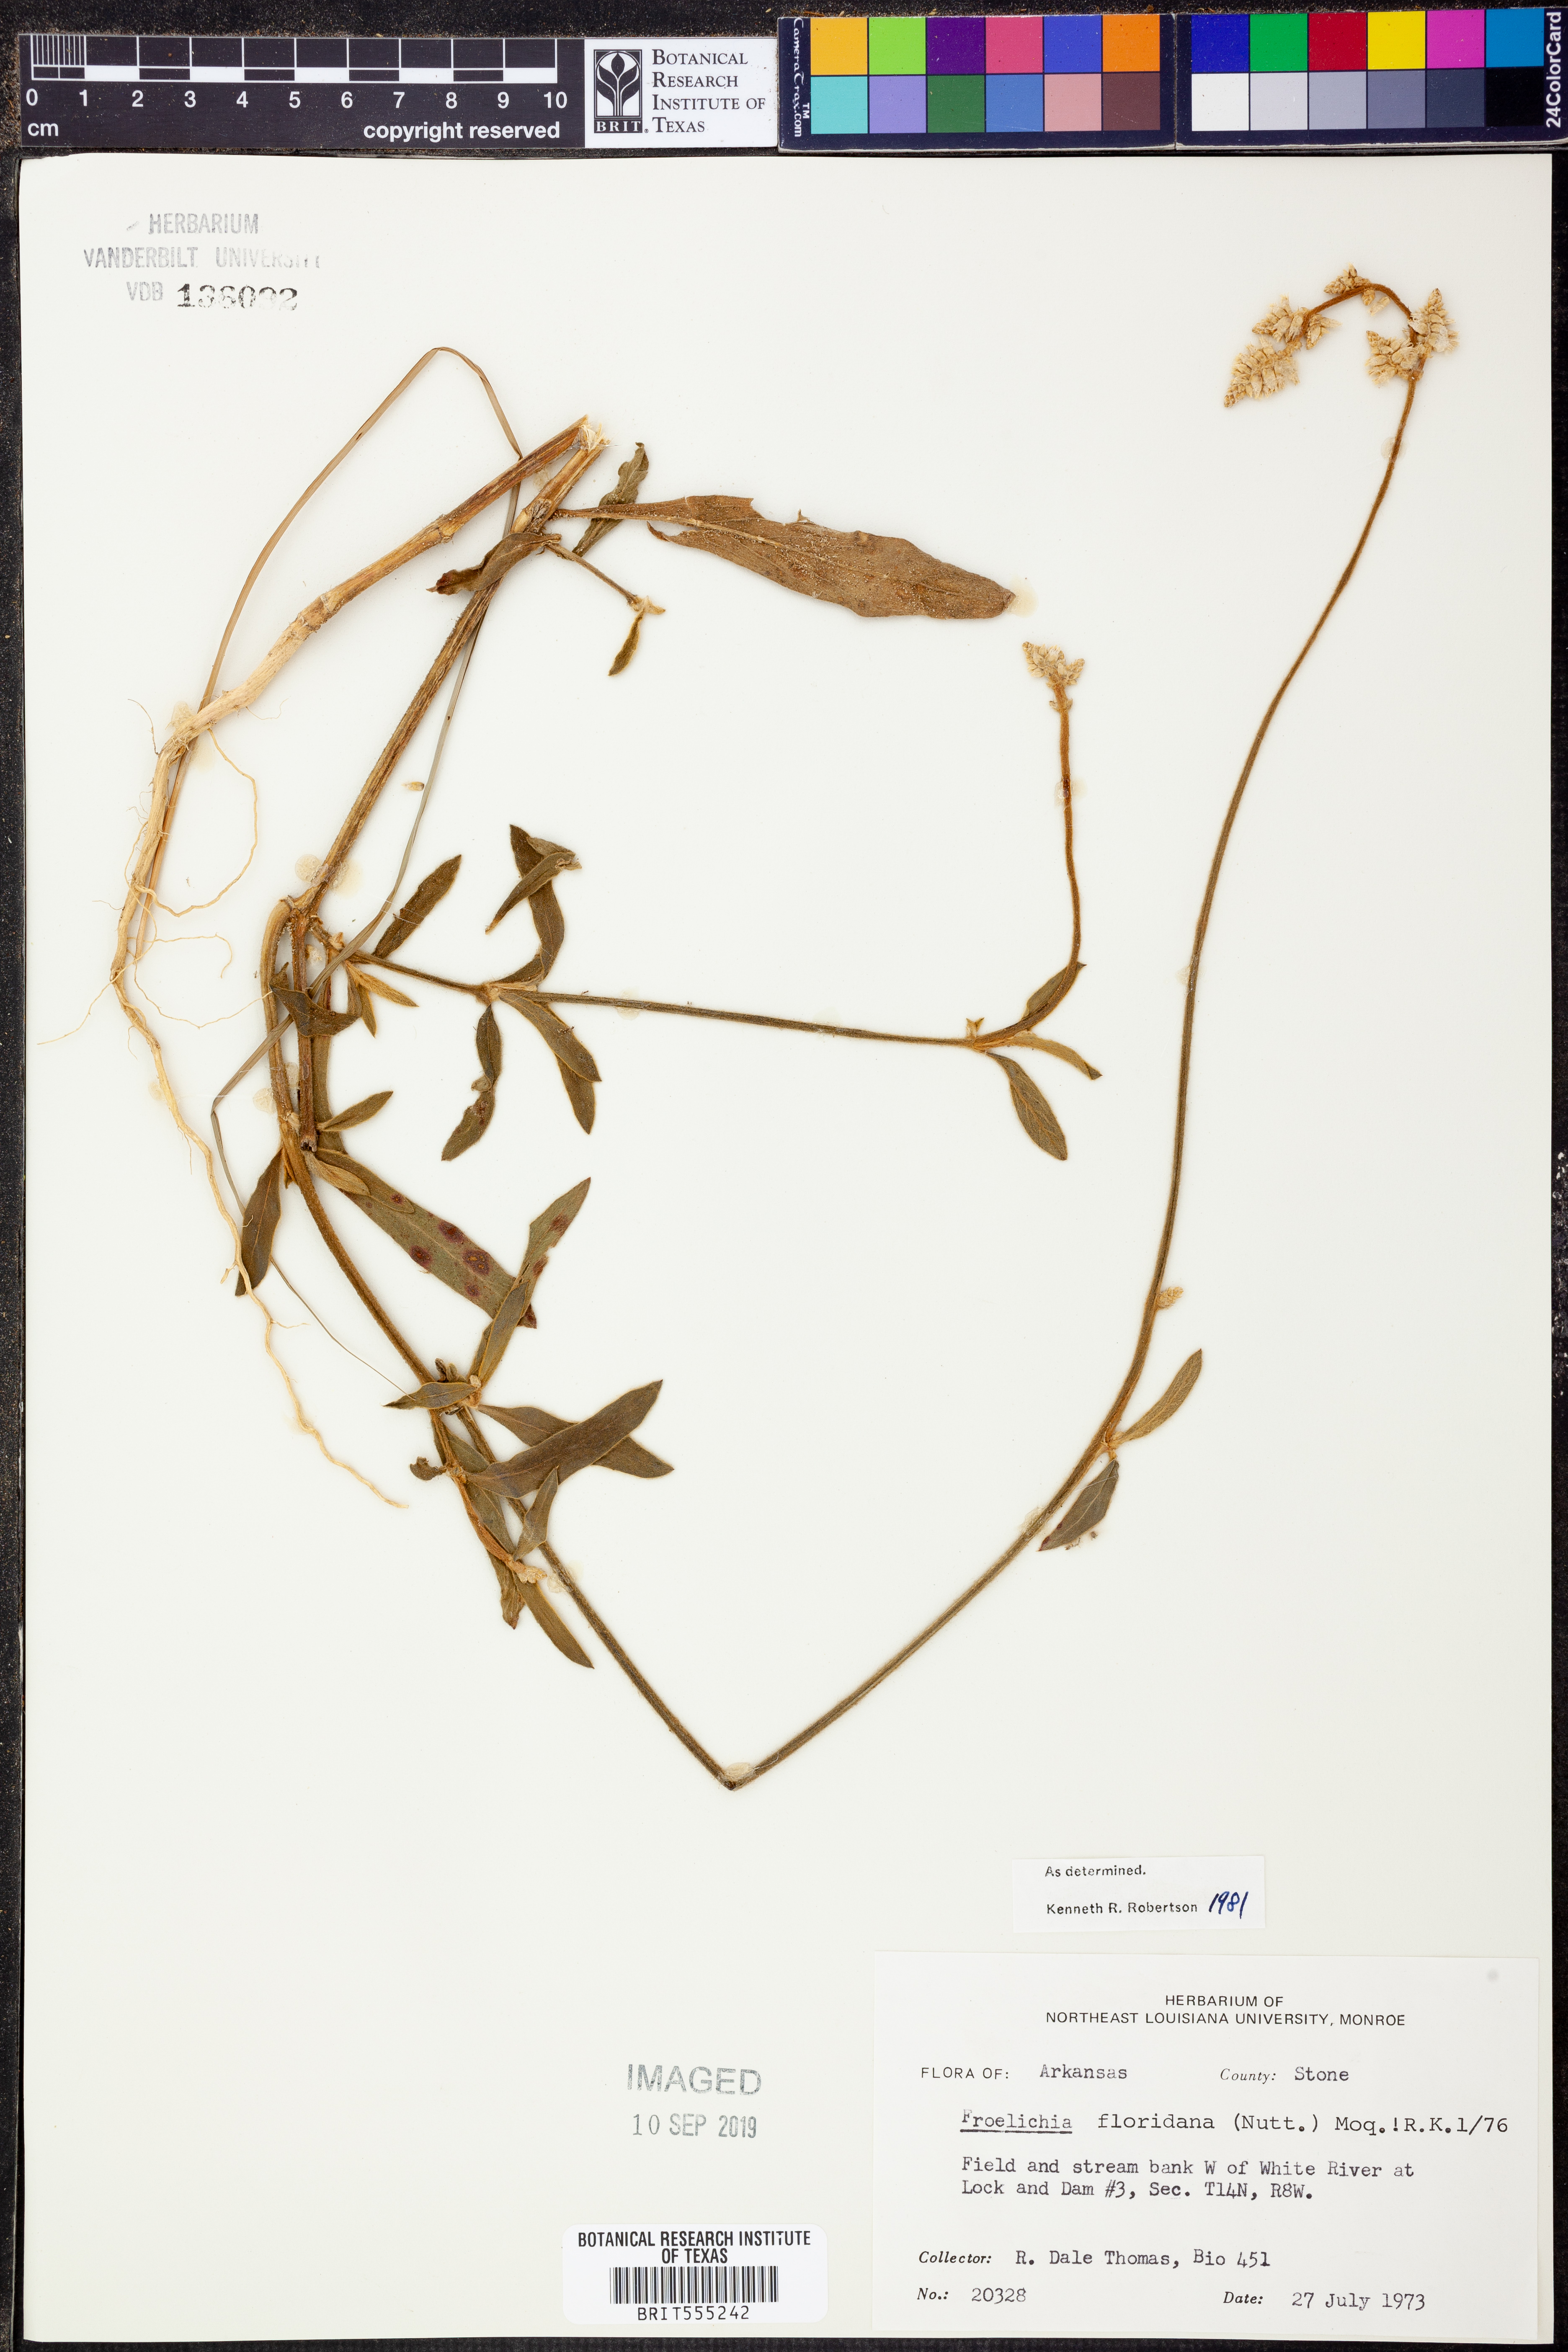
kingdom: Plantae
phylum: Tracheophyta
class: Magnoliopsida
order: Caryophyllales
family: Amaranthaceae
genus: Froelichia
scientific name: Froelichia floridana
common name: Florida snake-cotton
